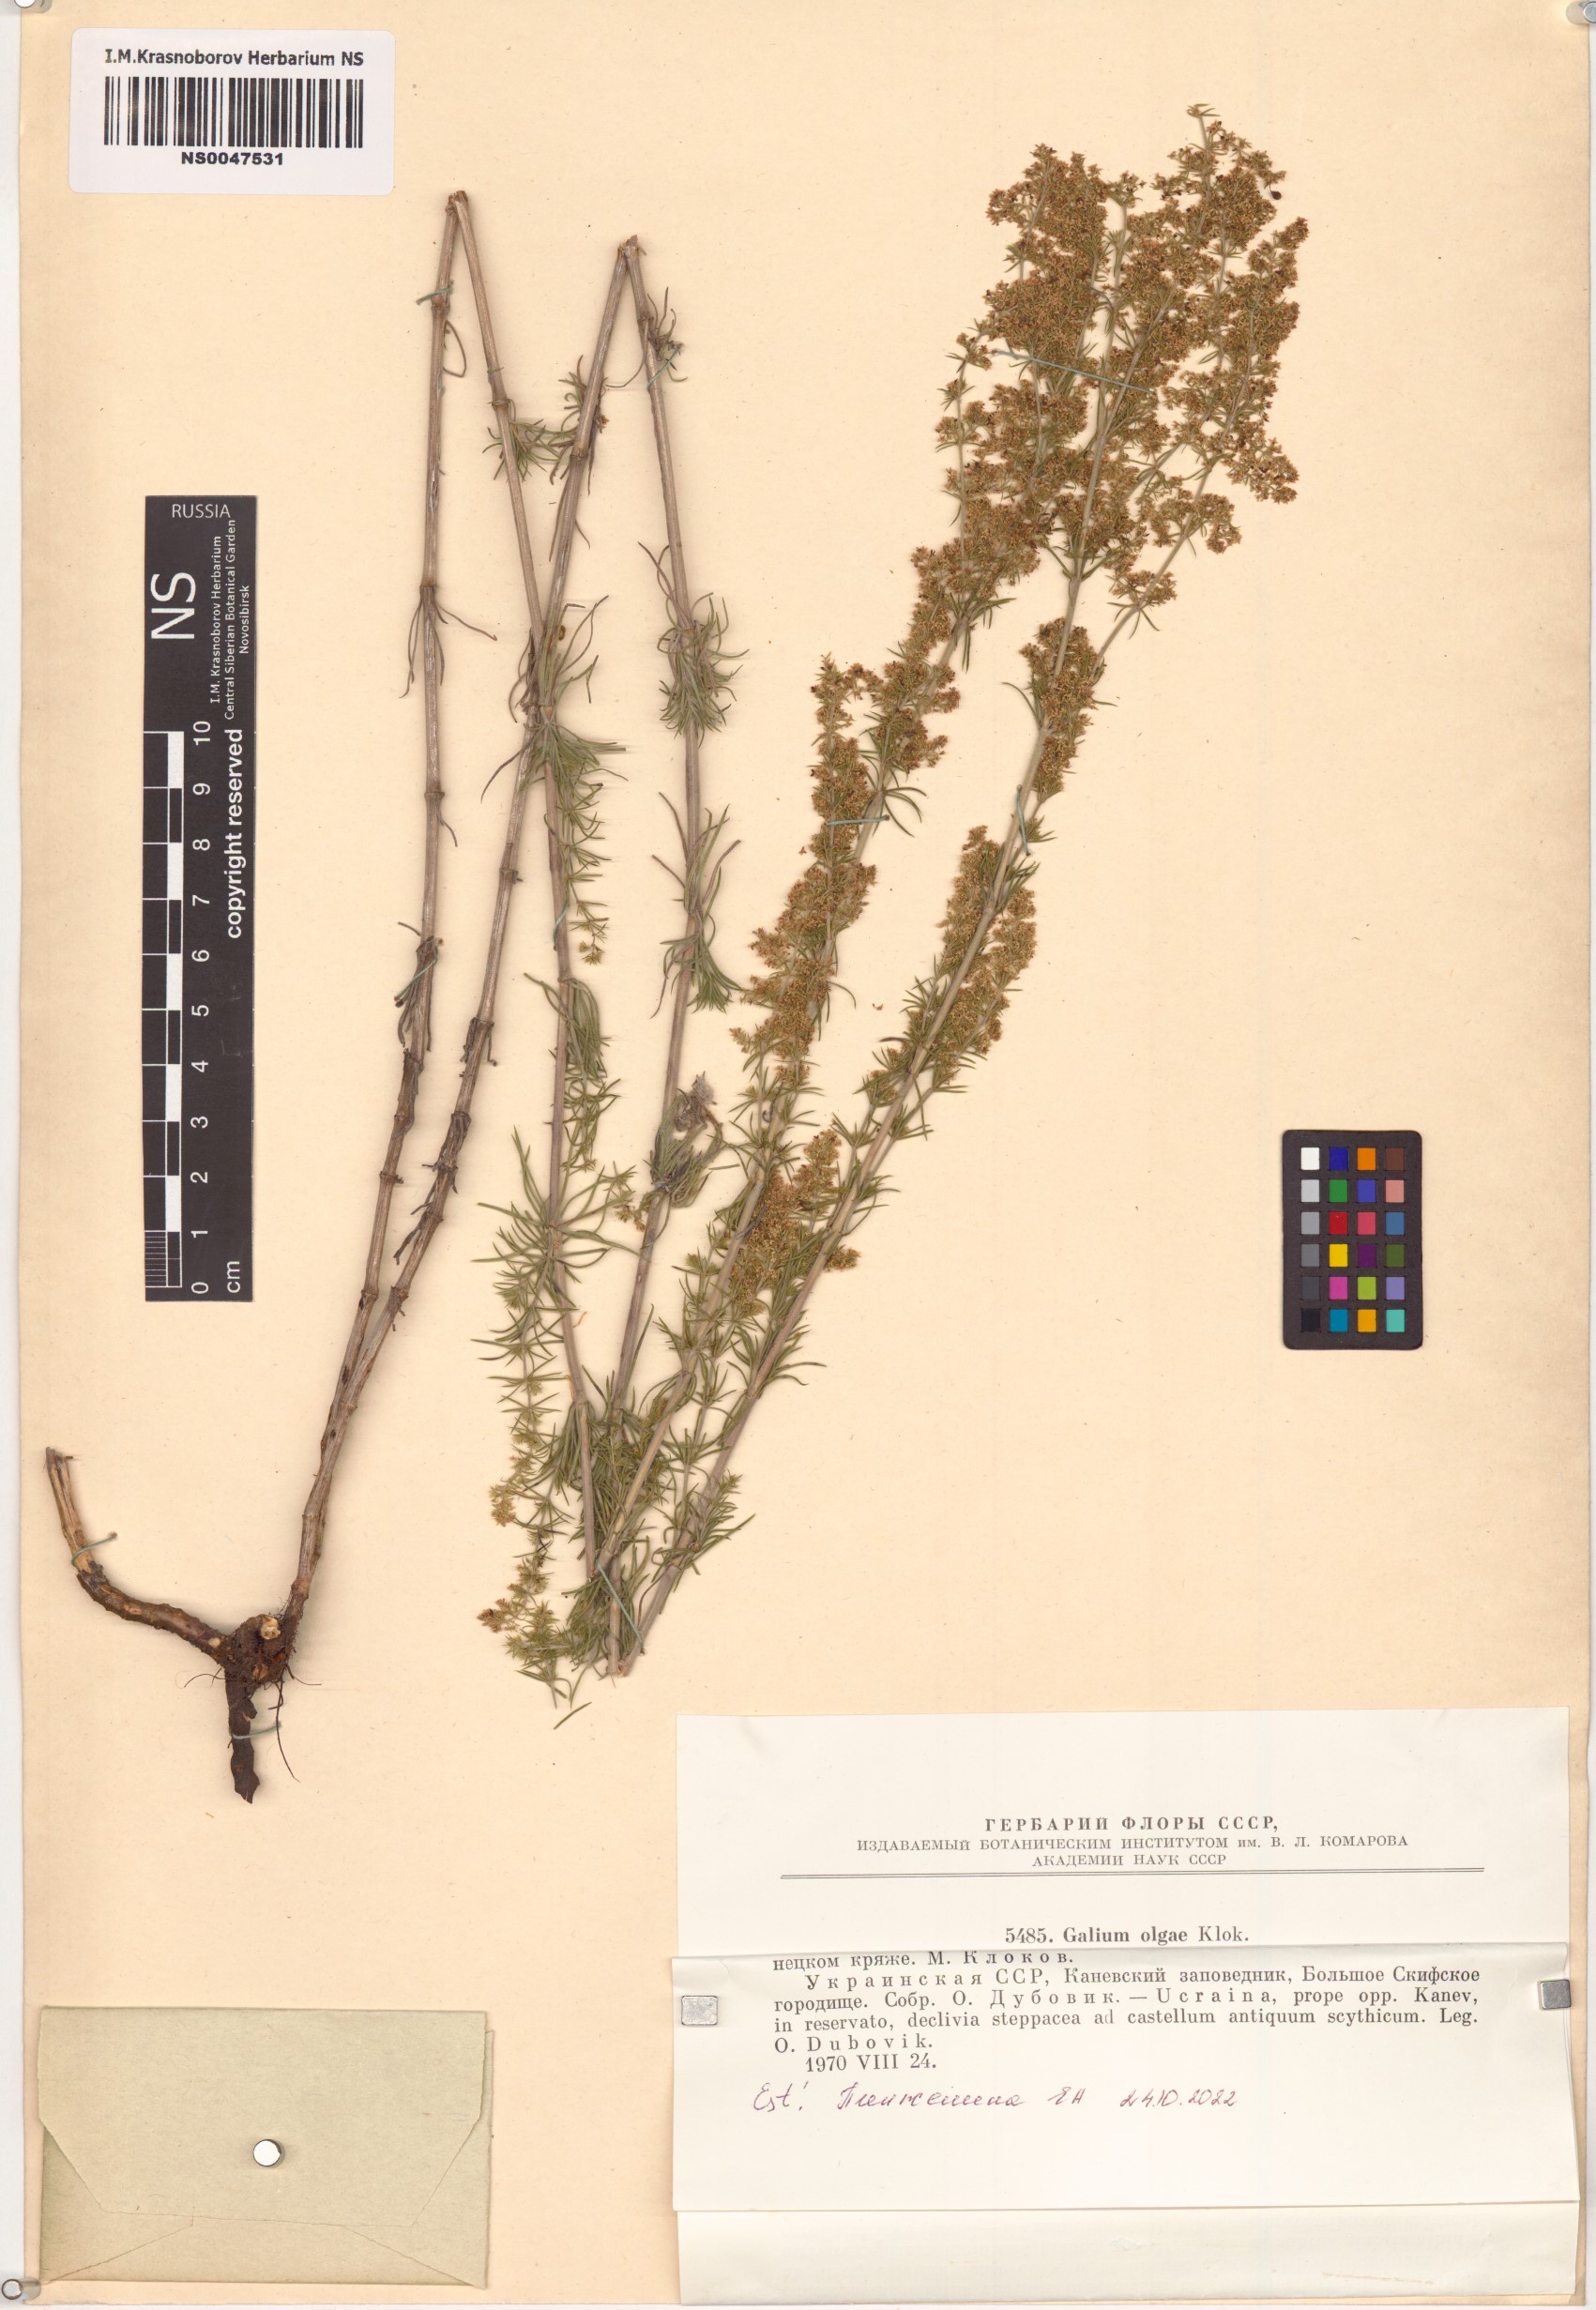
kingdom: Plantae
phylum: Tracheophyta
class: Magnoliopsida
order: Gentianales
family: Rubiaceae
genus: Galium
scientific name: Galium olgae
